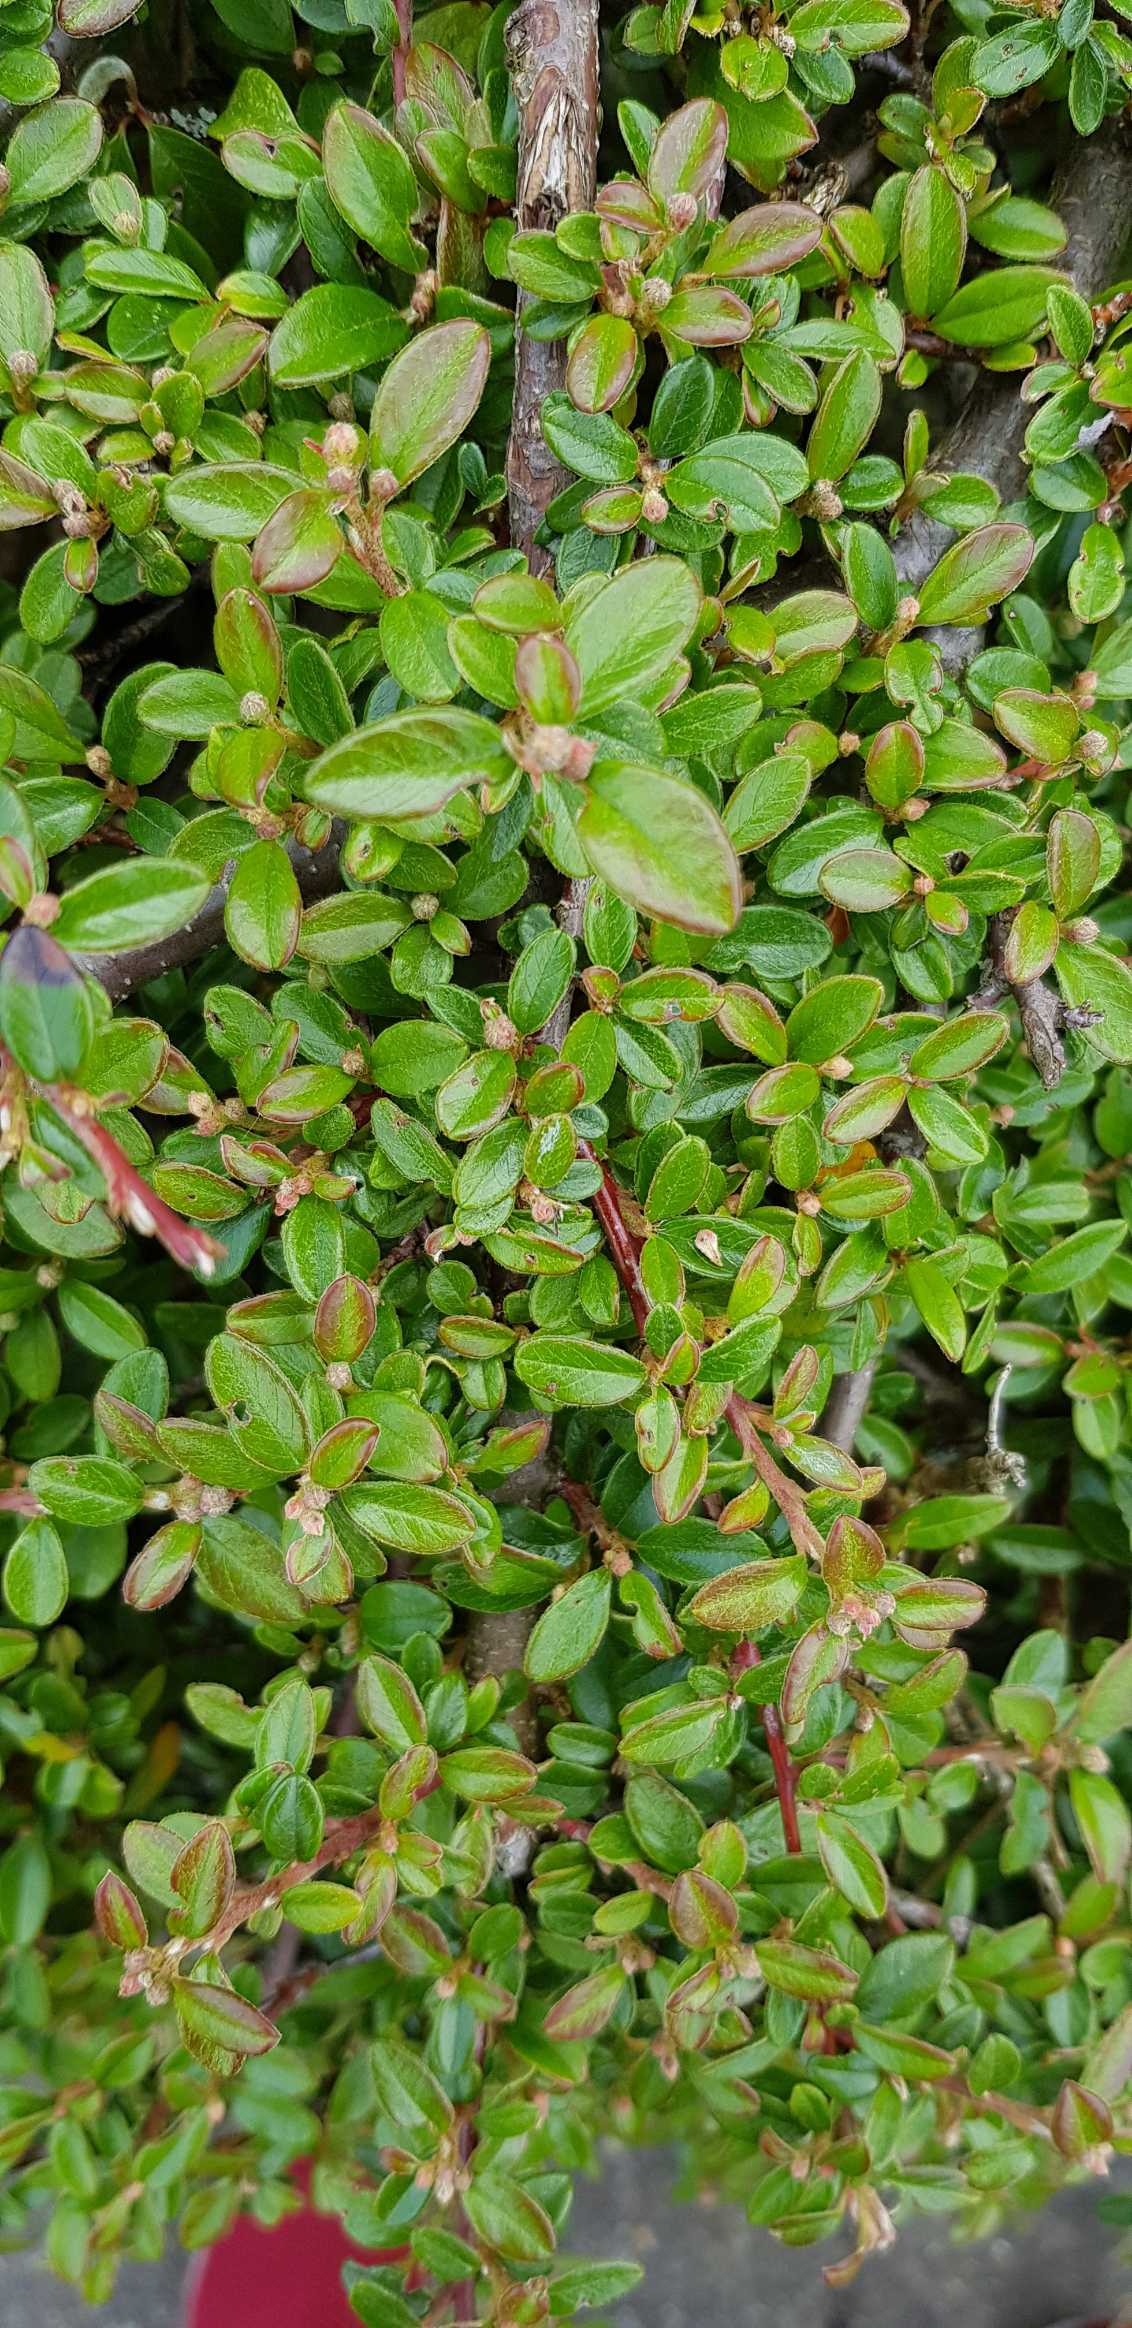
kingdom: Plantae
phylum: Tracheophyta
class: Magnoliopsida
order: Rosales
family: Rosaceae
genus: Cotoneaster
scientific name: Cotoneaster dammeri
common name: Krybende dværgmispel
